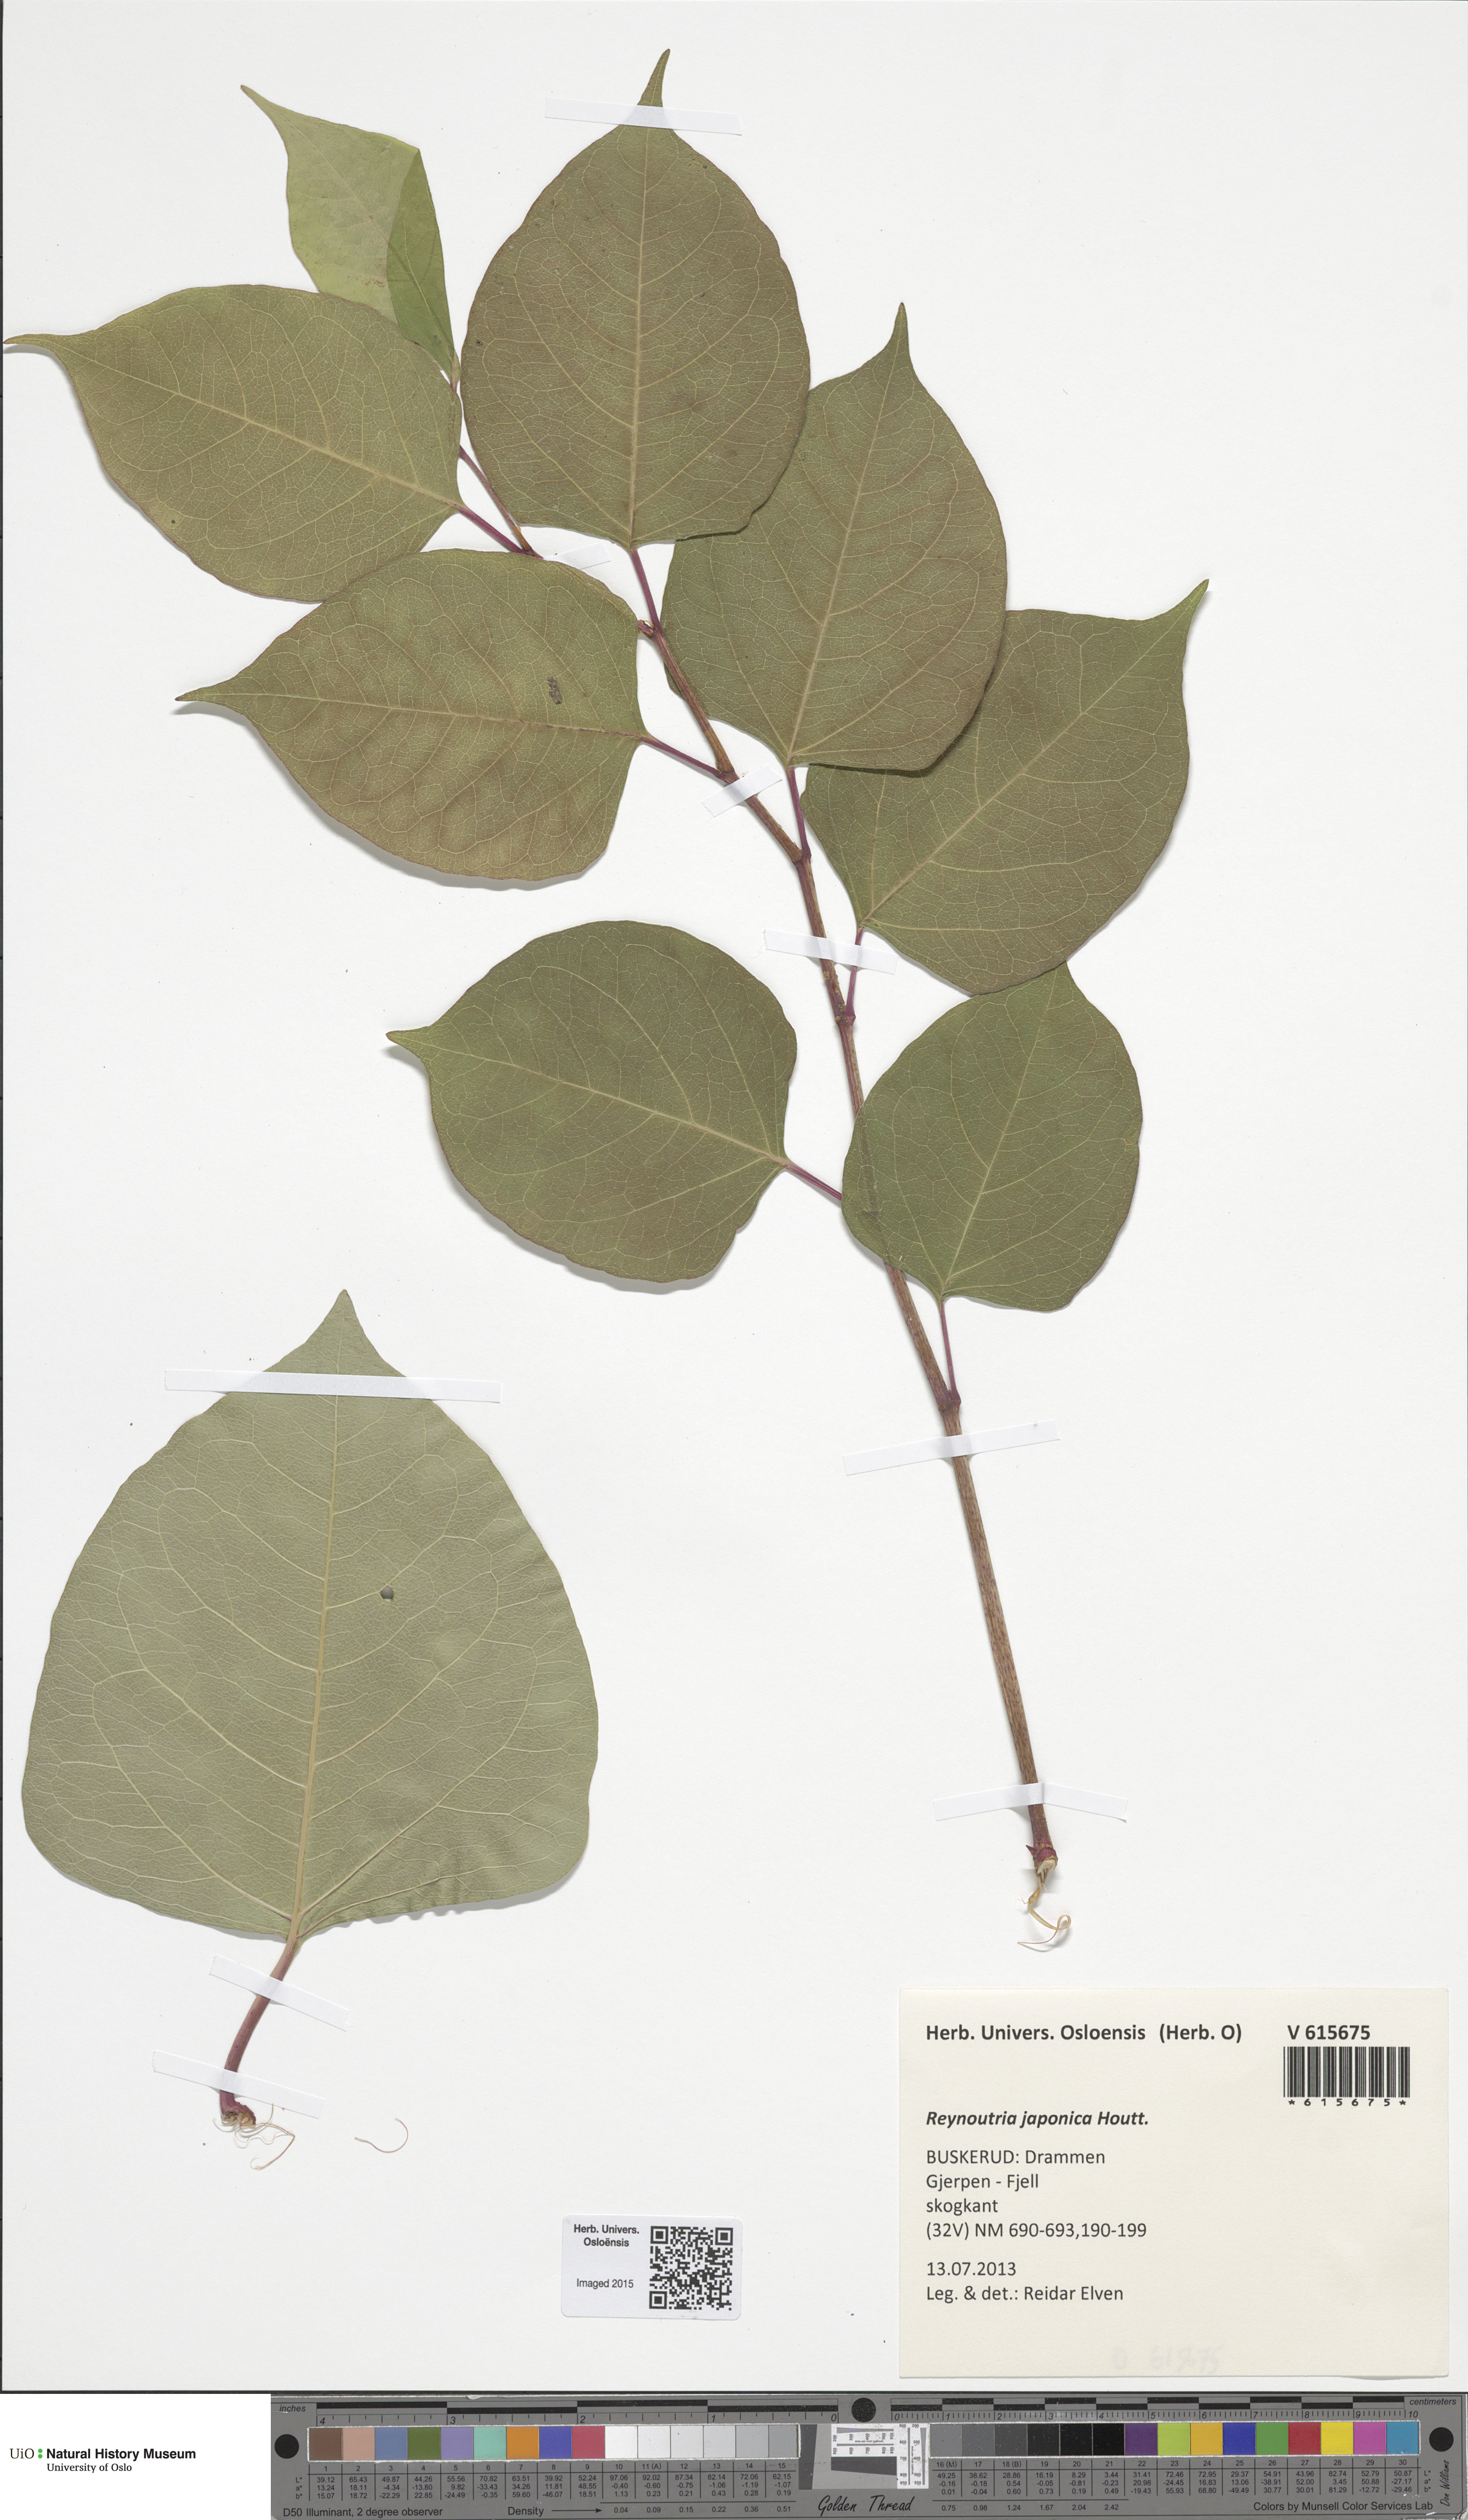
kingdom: Plantae
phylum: Tracheophyta
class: Magnoliopsida
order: Caryophyllales
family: Polygonaceae
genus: Reynoutria
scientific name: Reynoutria japonica
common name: Japanese knotweed
